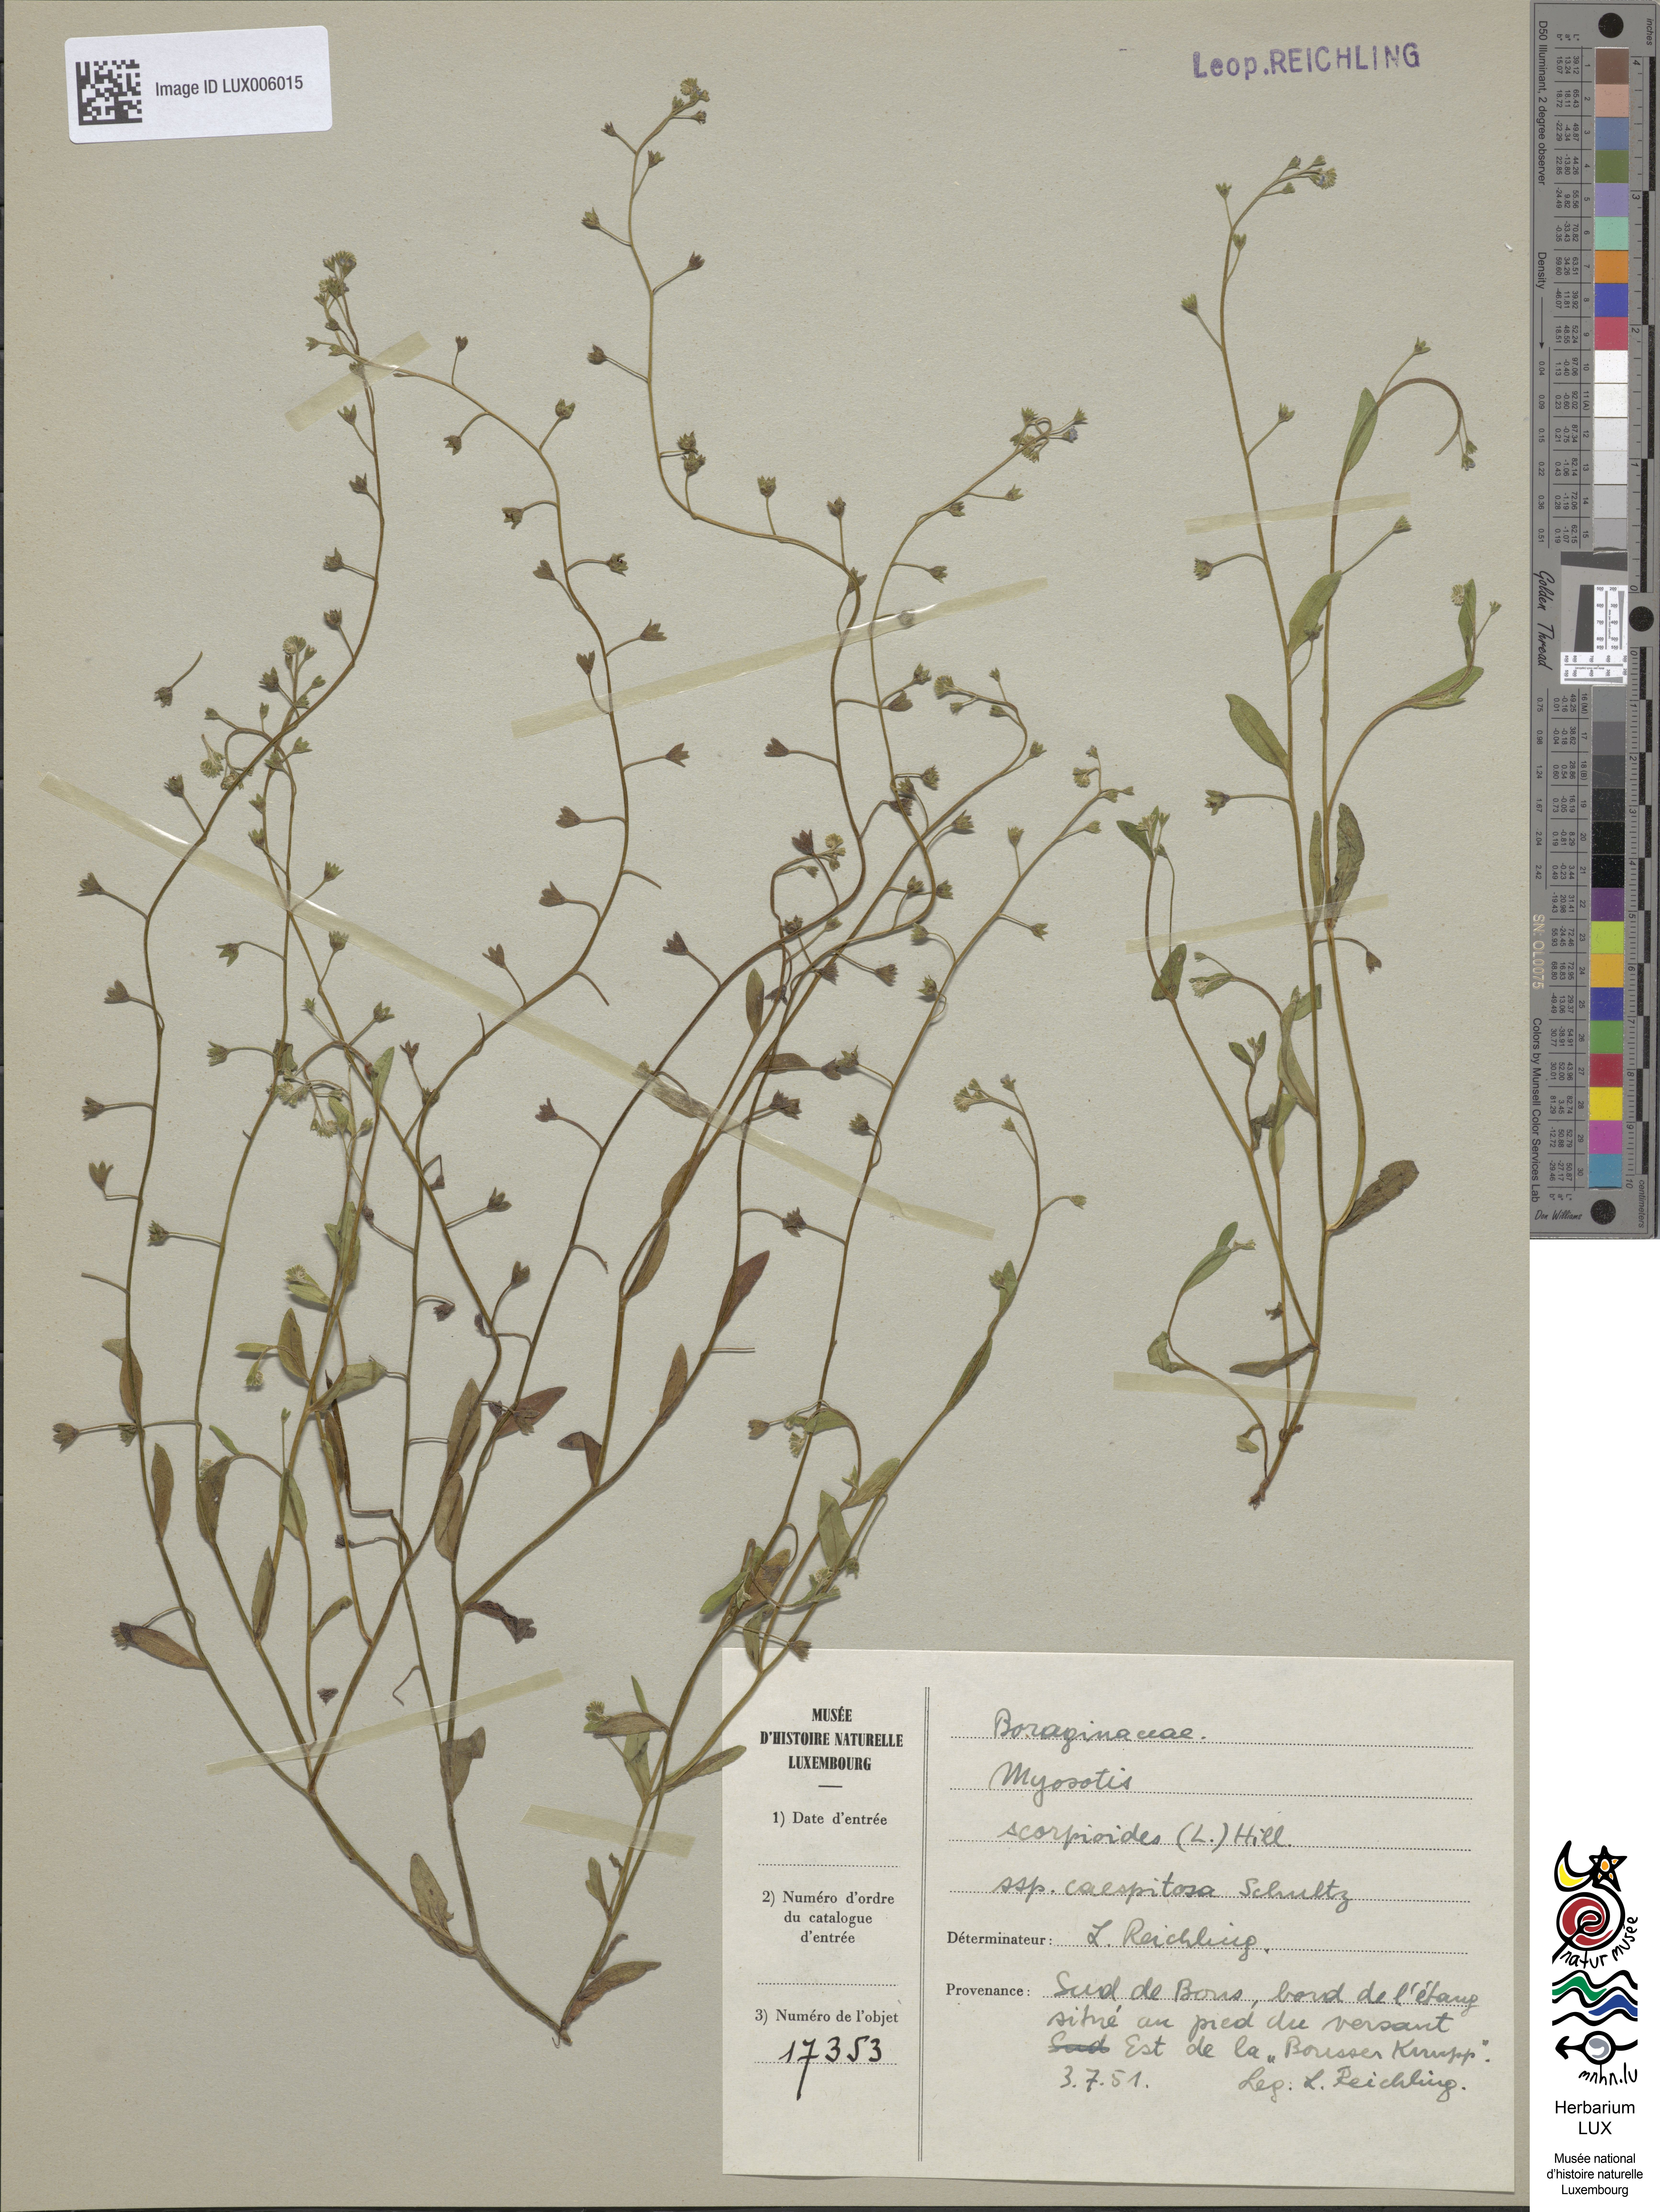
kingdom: Plantae
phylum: Tracheophyta
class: Magnoliopsida
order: Boraginales
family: Boraginaceae
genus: Myosotis
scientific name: Myosotis laxa
